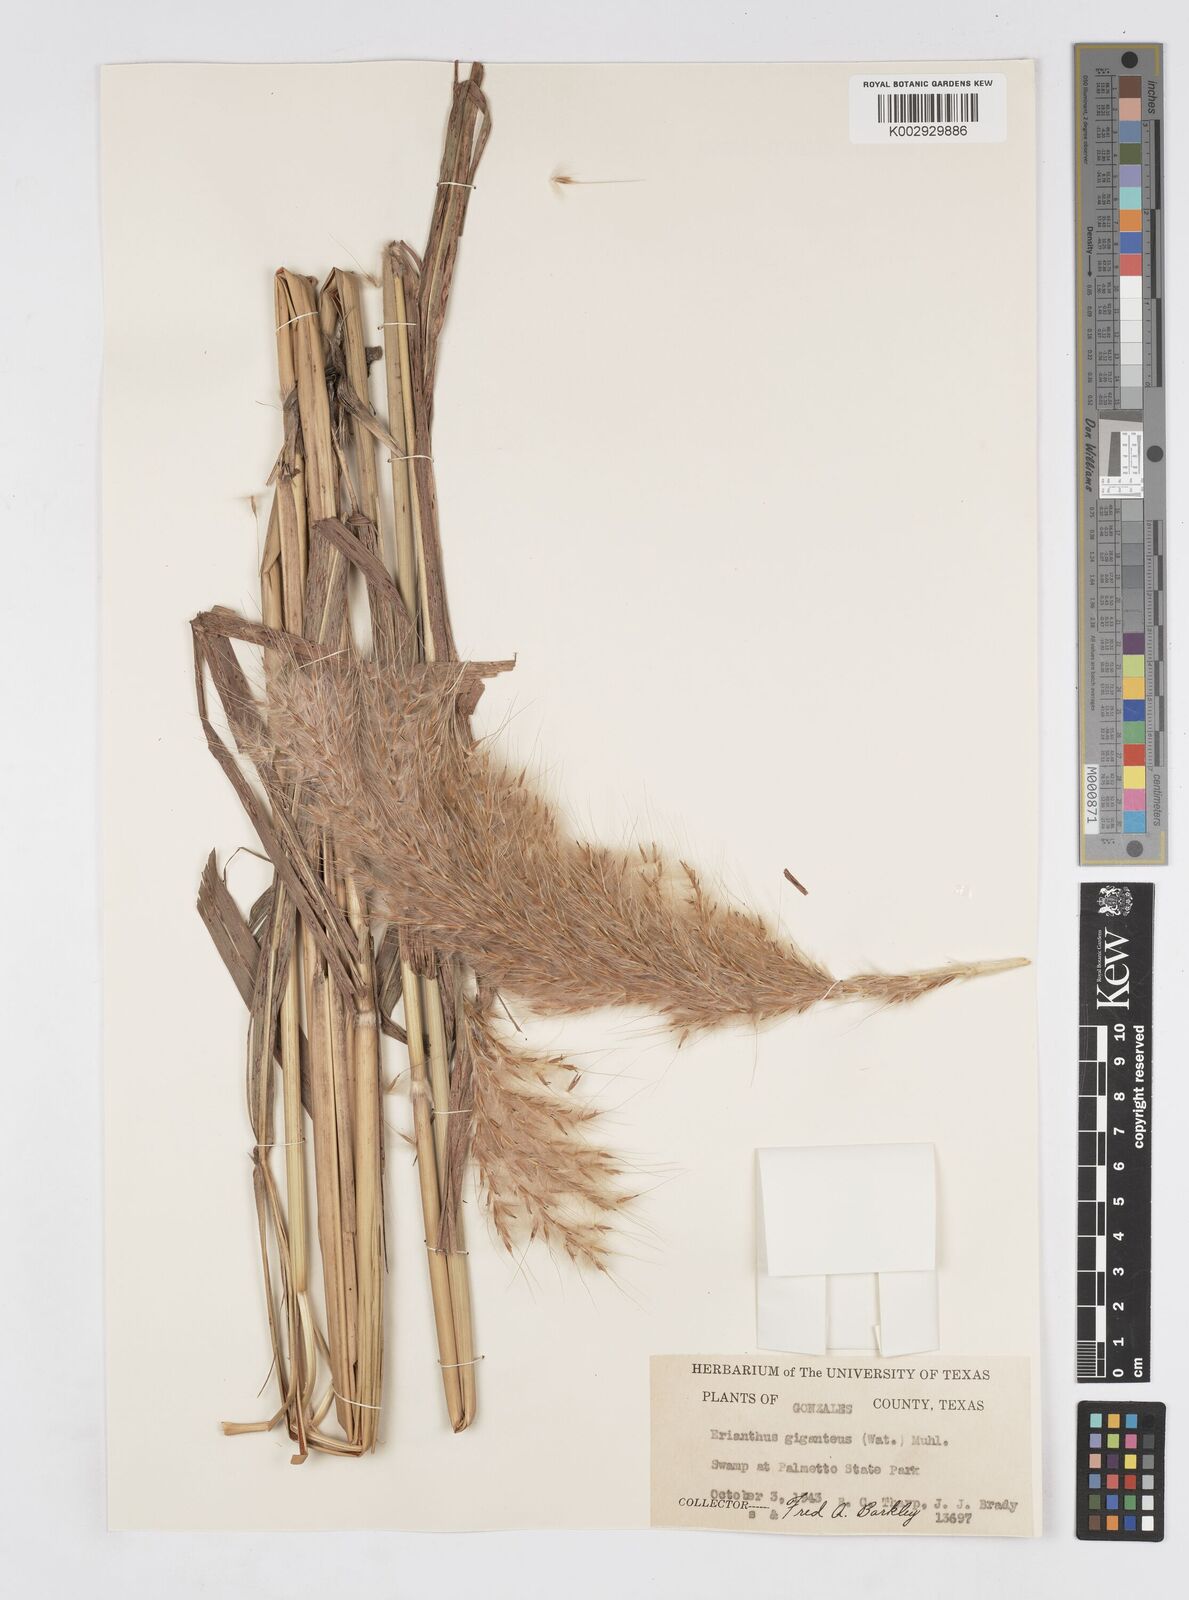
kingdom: Plantae
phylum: Tracheophyta
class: Liliopsida
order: Poales
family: Poaceae
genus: Erianthus
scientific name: Erianthus giganteus
